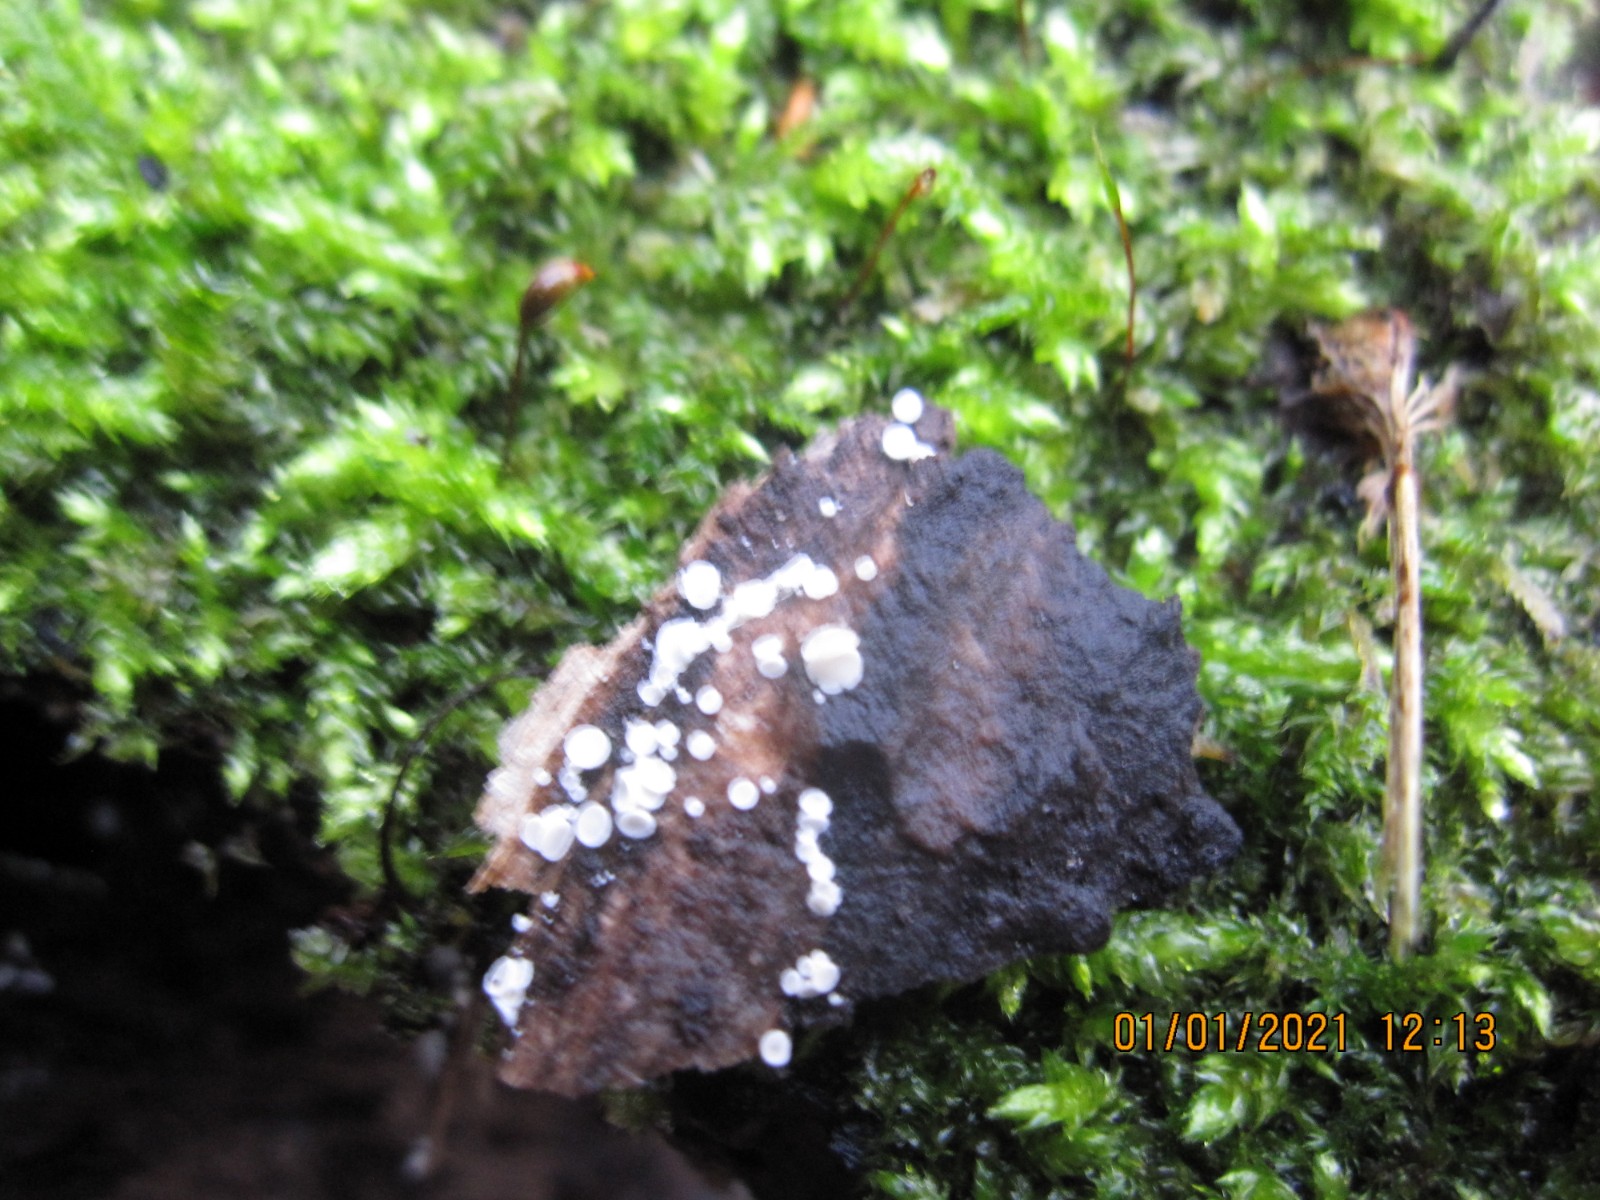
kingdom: Fungi
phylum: Ascomycota
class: Leotiomycetes
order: Helotiales
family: Lachnaceae
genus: Lachnum
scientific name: Lachnum impudicum
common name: vinter-frynseskive
